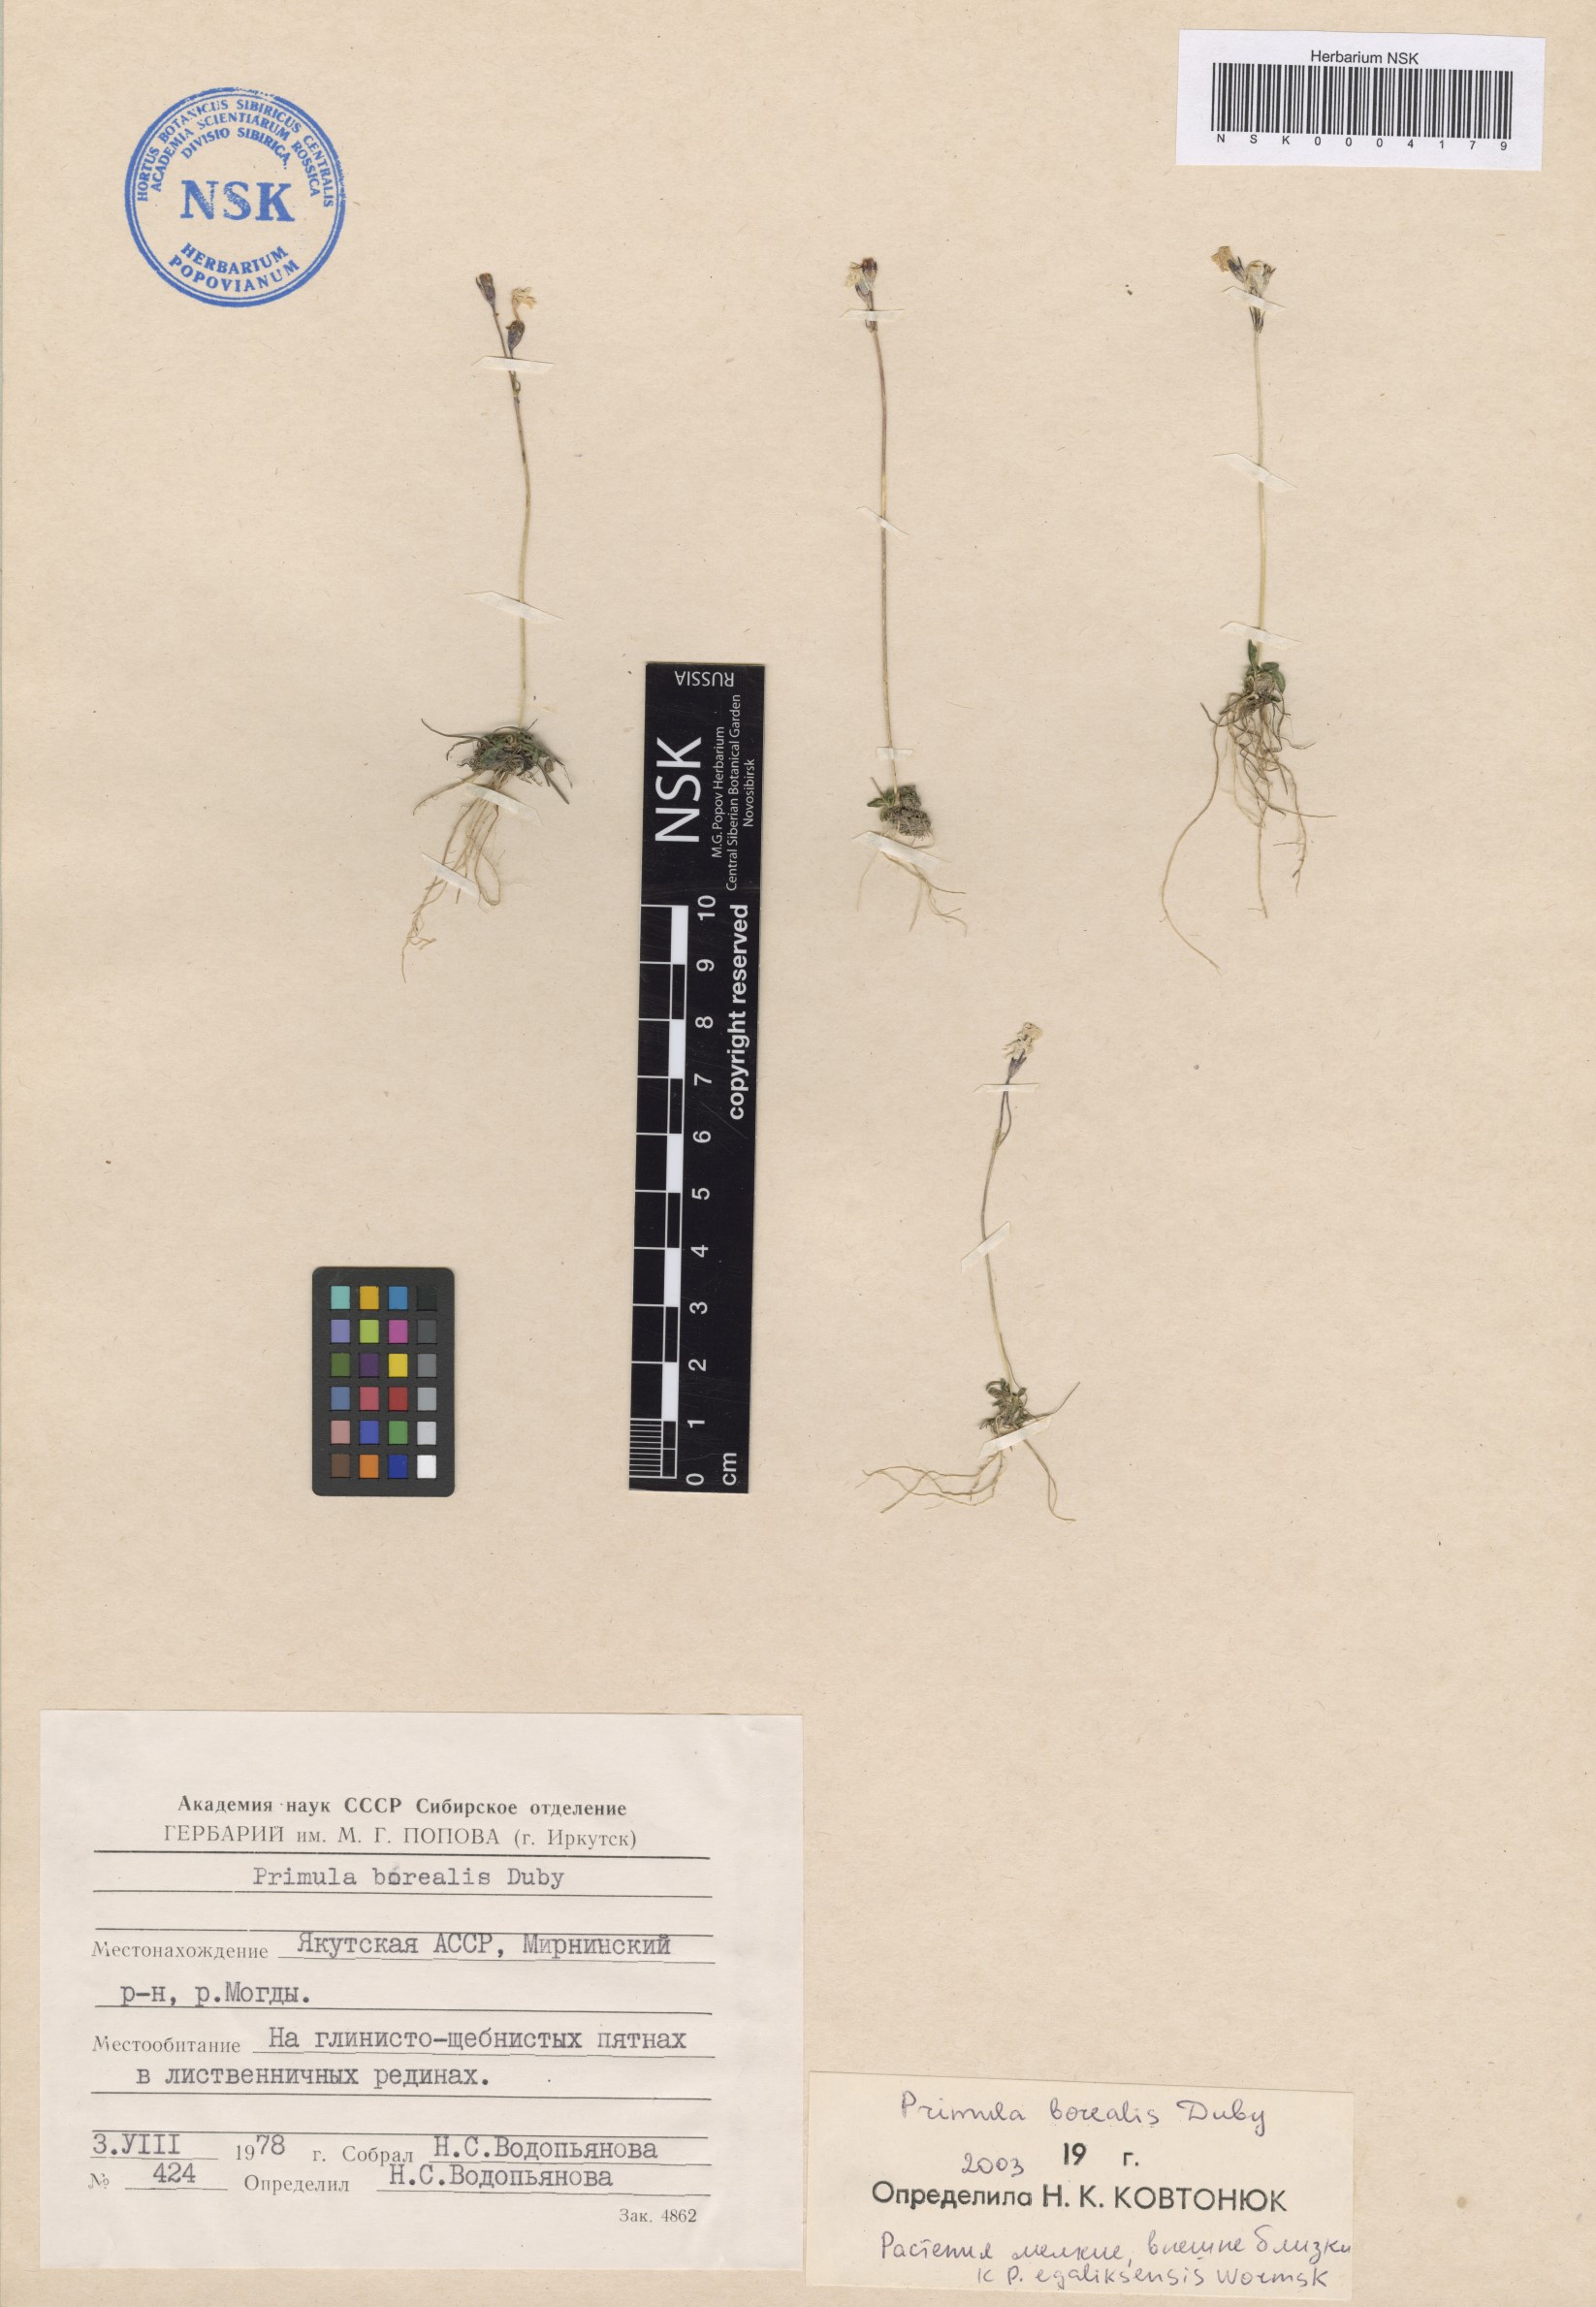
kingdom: Plantae
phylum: Tracheophyta
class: Magnoliopsida
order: Ericales
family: Primulaceae
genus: Primula
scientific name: Primula borealis
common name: Northern primrose
